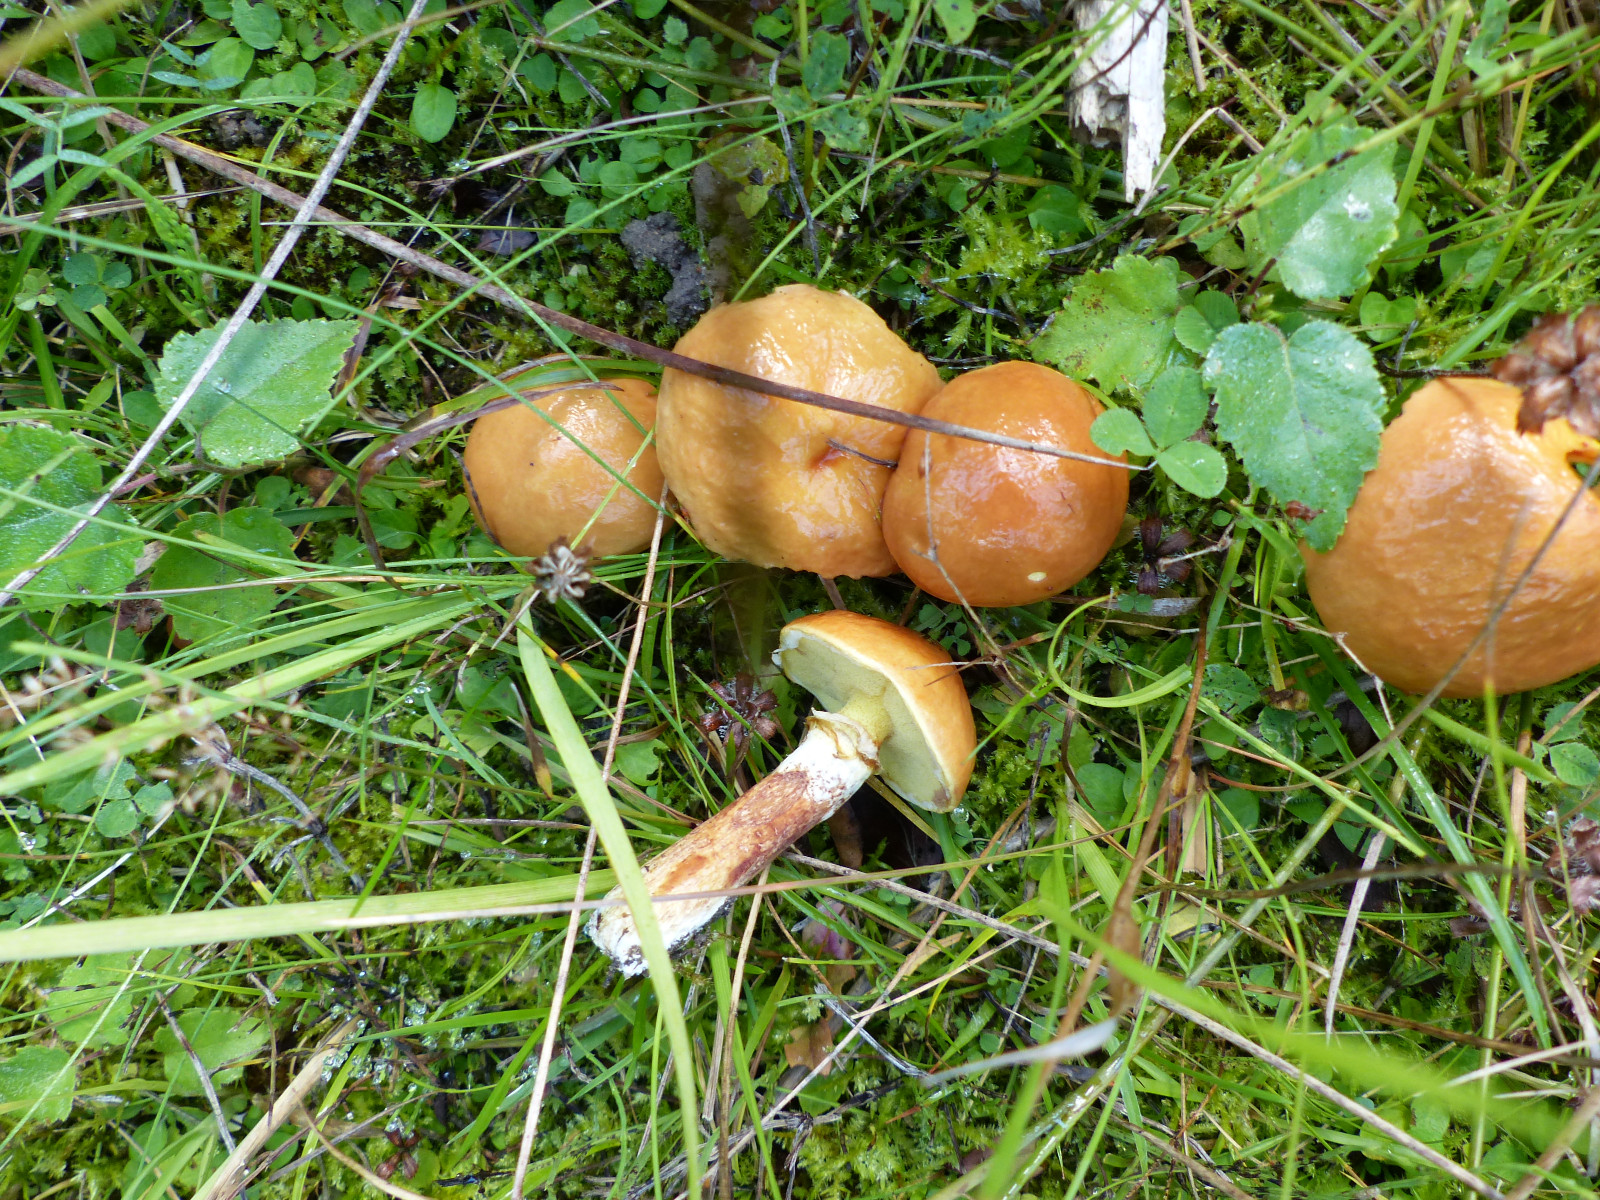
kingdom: Fungi
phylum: Basidiomycota
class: Agaricomycetes
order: Boletales
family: Suillaceae
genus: Suillus
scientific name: Suillus grevillei
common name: lærke-slimrørhat
